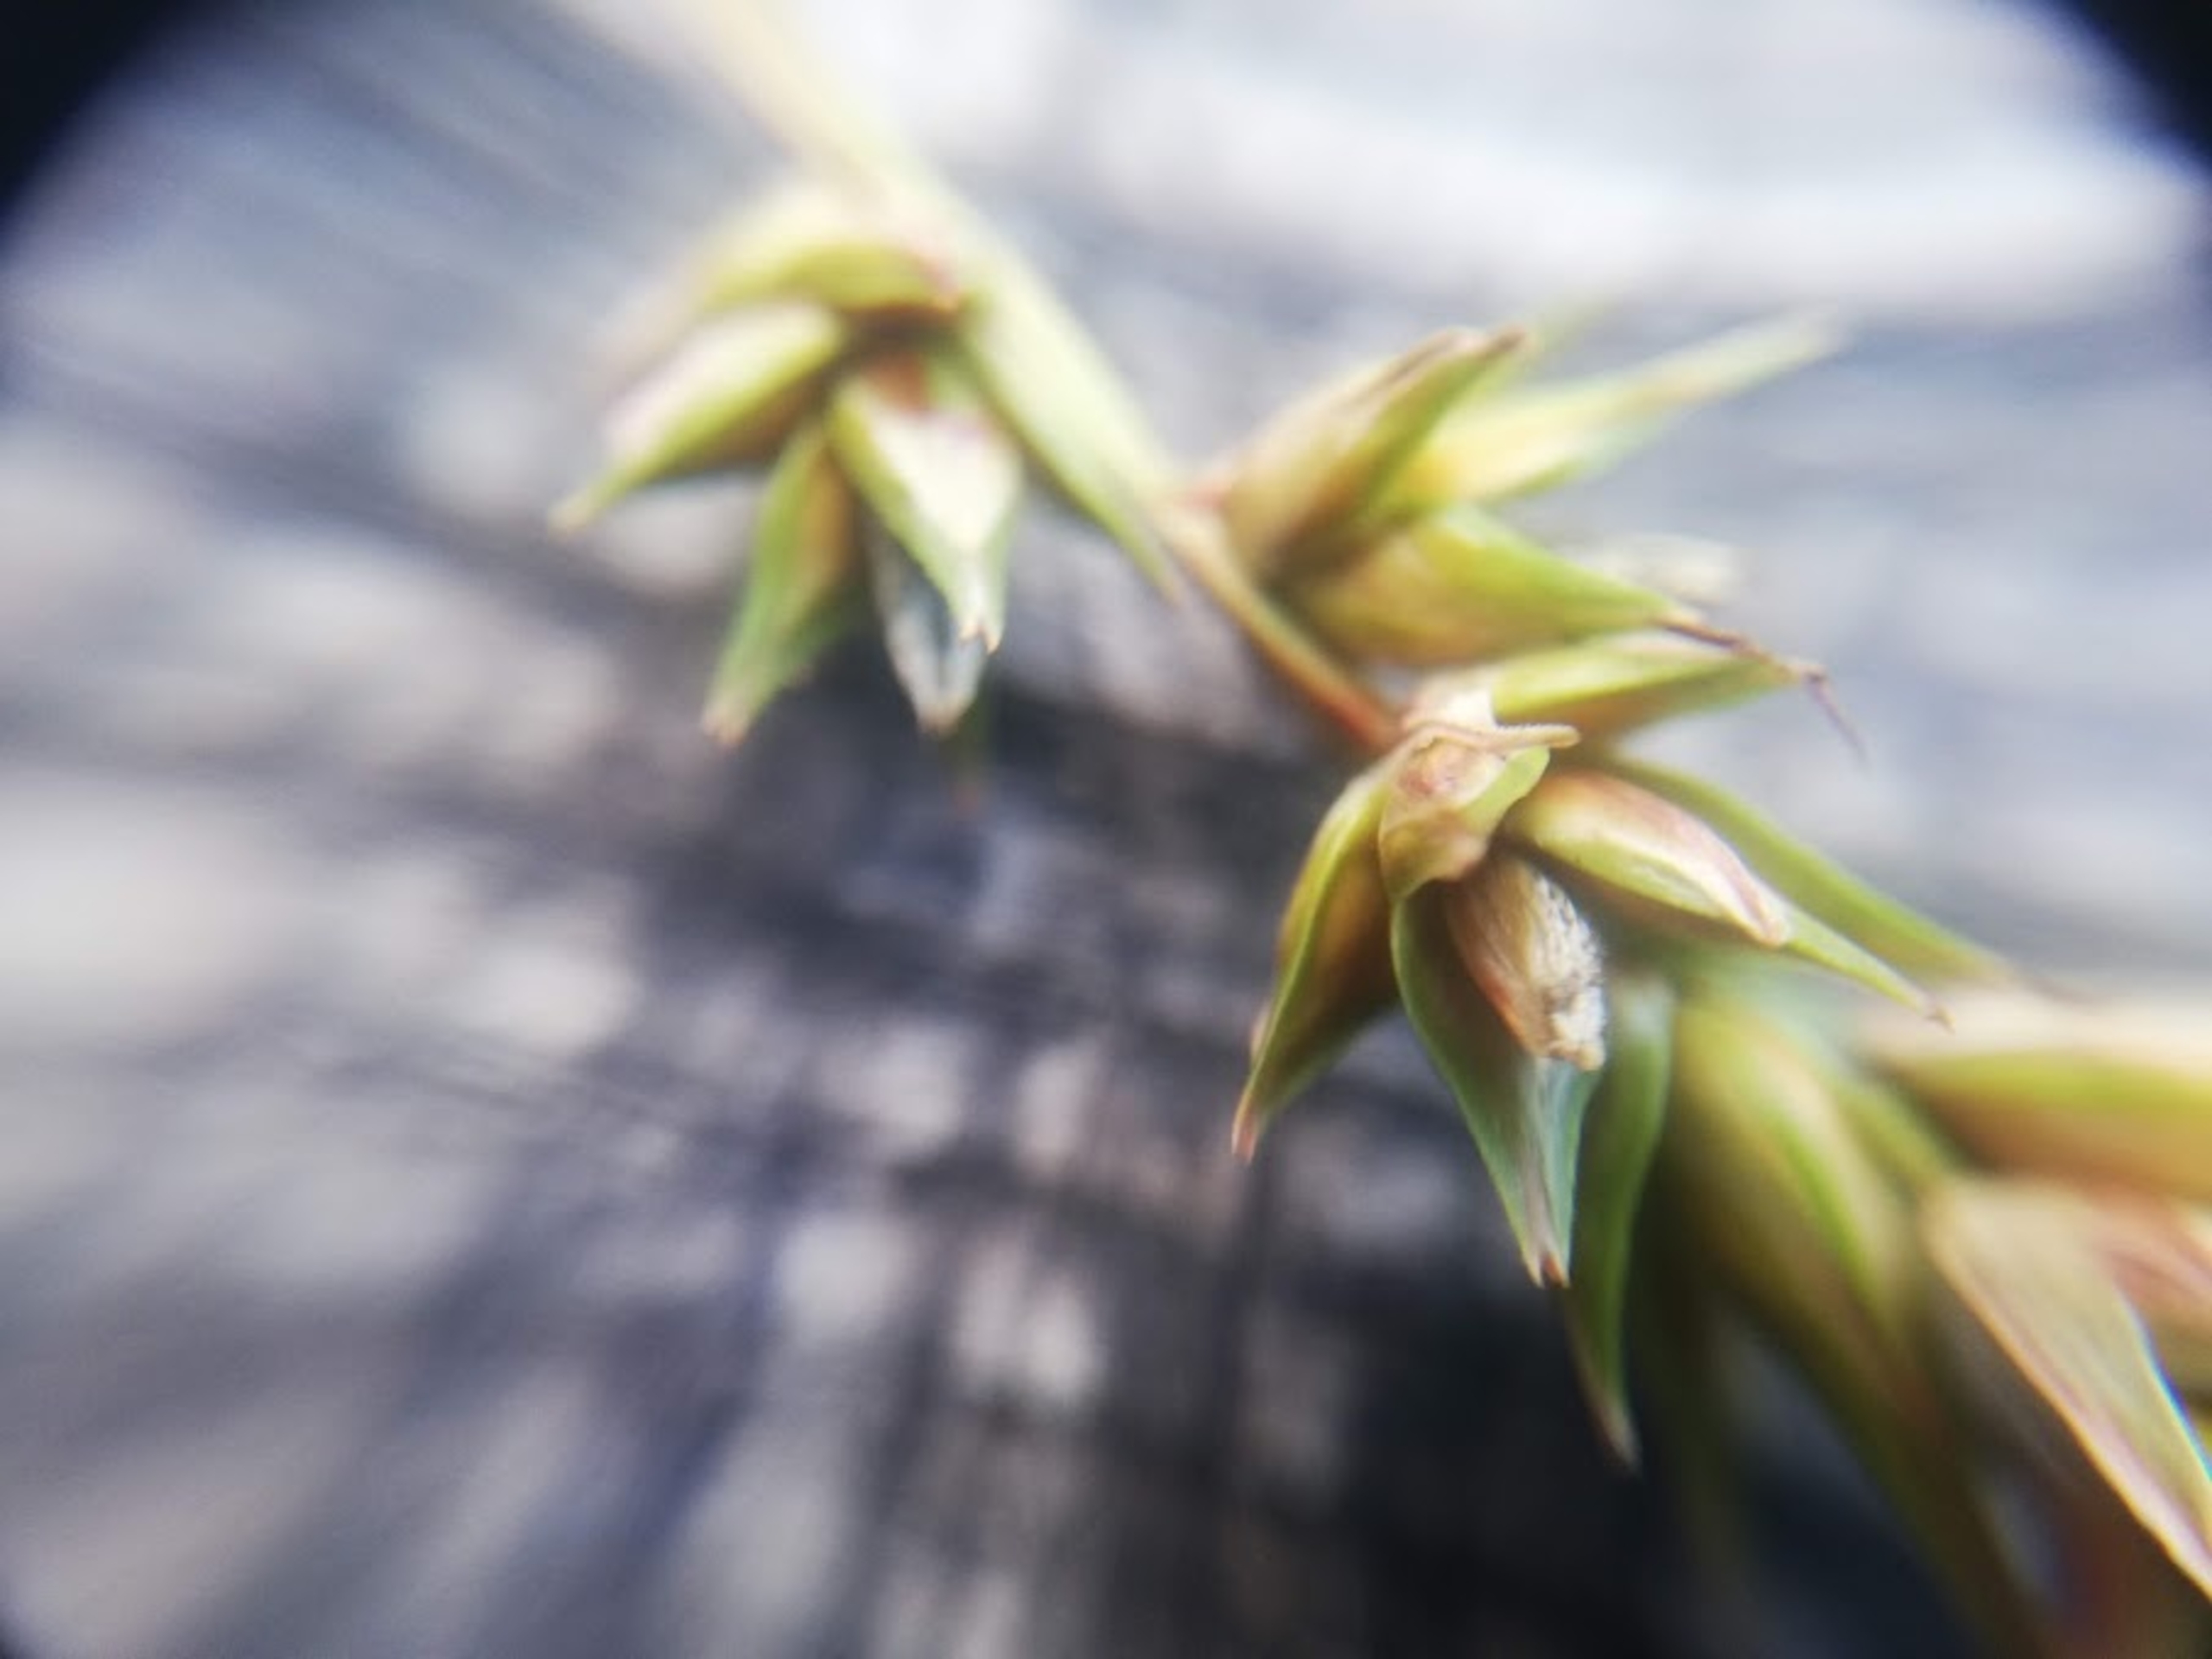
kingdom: Plantae
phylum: Tracheophyta
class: Liliopsida
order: Poales
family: Cyperaceae
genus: Carex
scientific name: Carex spicata
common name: Spidskapslet star
